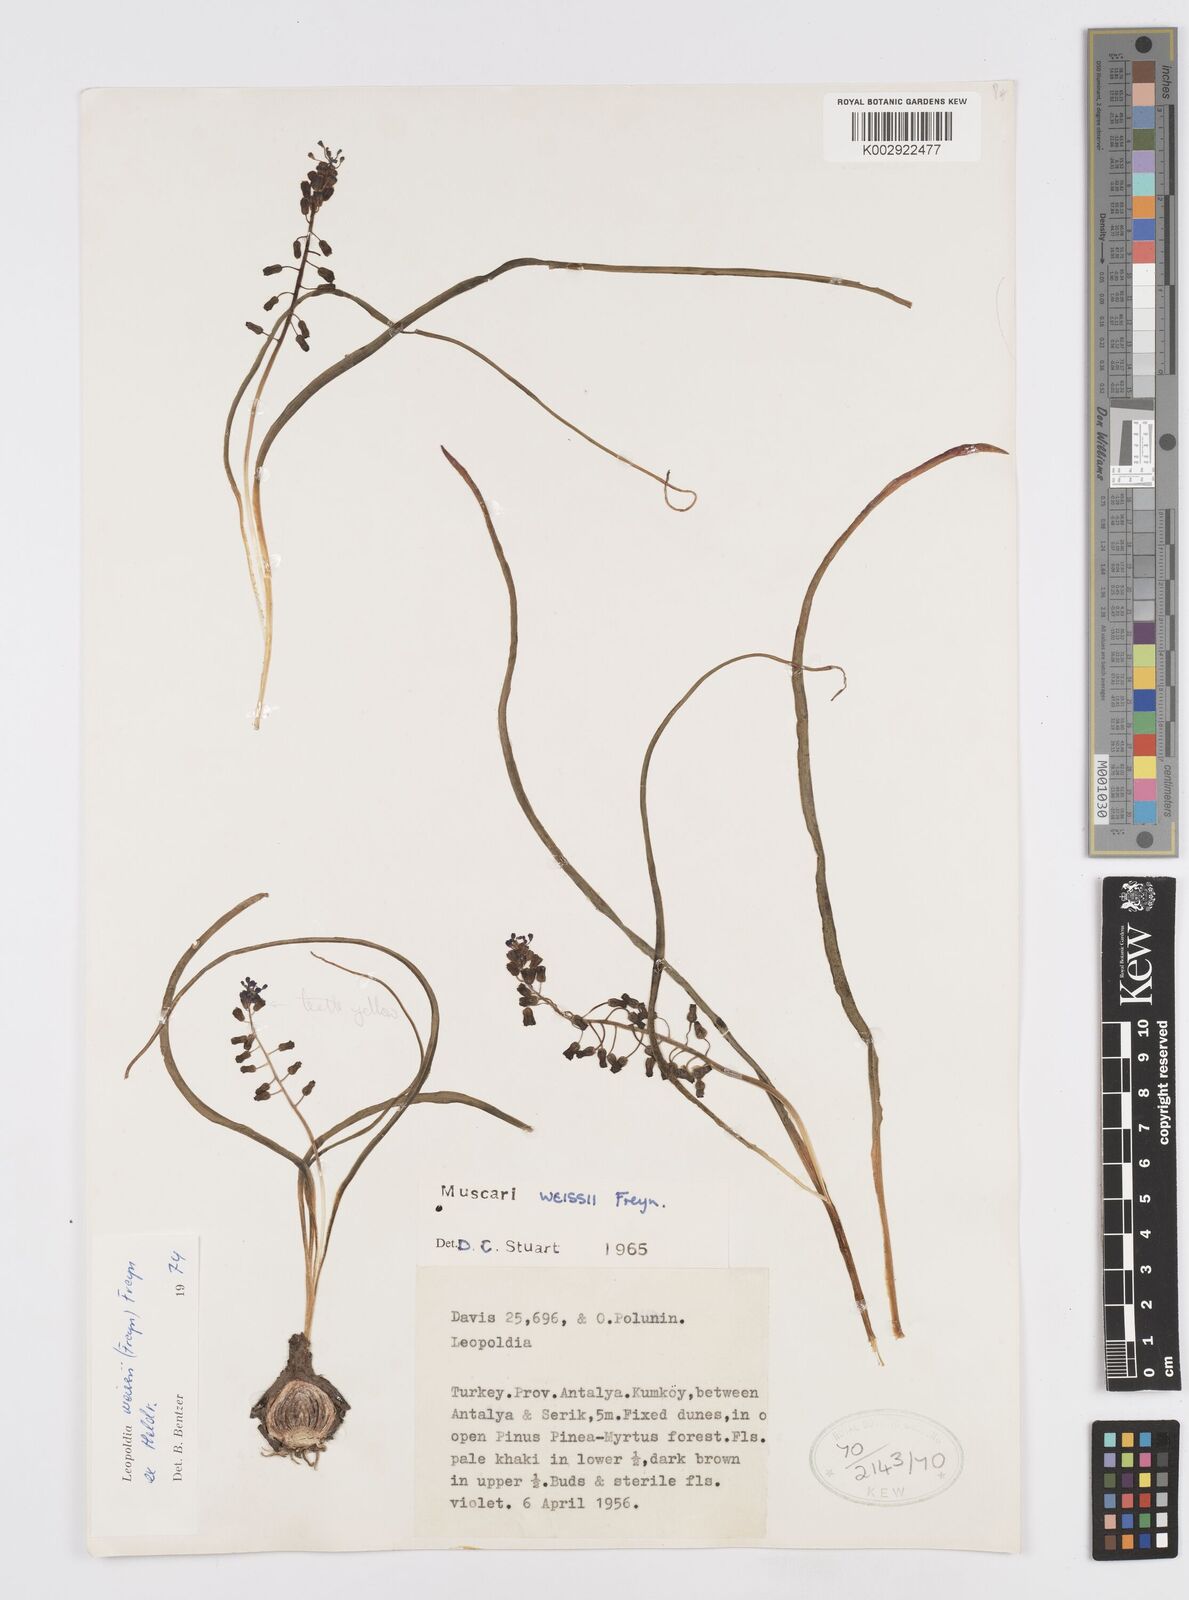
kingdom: Plantae
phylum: Tracheophyta
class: Liliopsida
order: Asparagales
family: Asparagaceae
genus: Muscari
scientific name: Muscari weissii
